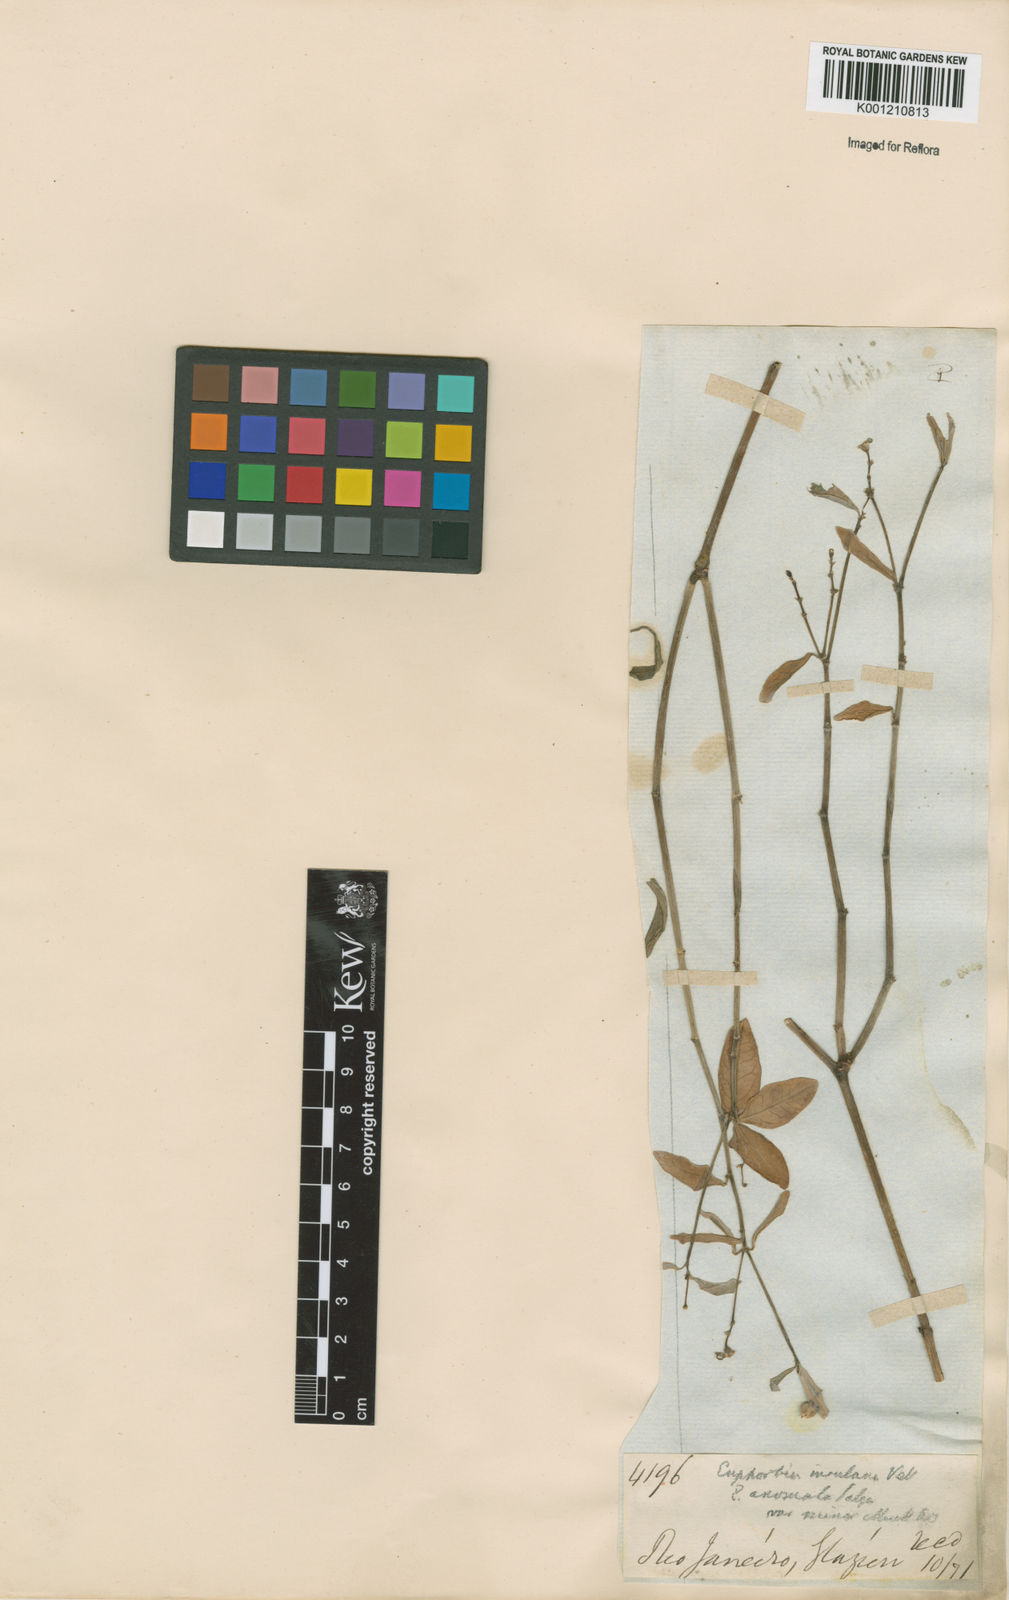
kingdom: Plantae
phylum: Tracheophyta
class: Magnoliopsida
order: Malpighiales
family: Euphorbiaceae
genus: Euphorbia
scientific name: Euphorbia insulana
